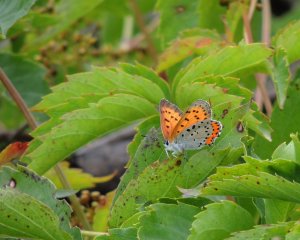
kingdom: Animalia
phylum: Arthropoda
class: Insecta
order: Lepidoptera
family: Sesiidae
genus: Sesia
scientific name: Sesia Lycaena hyllus
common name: Bronze Copper
